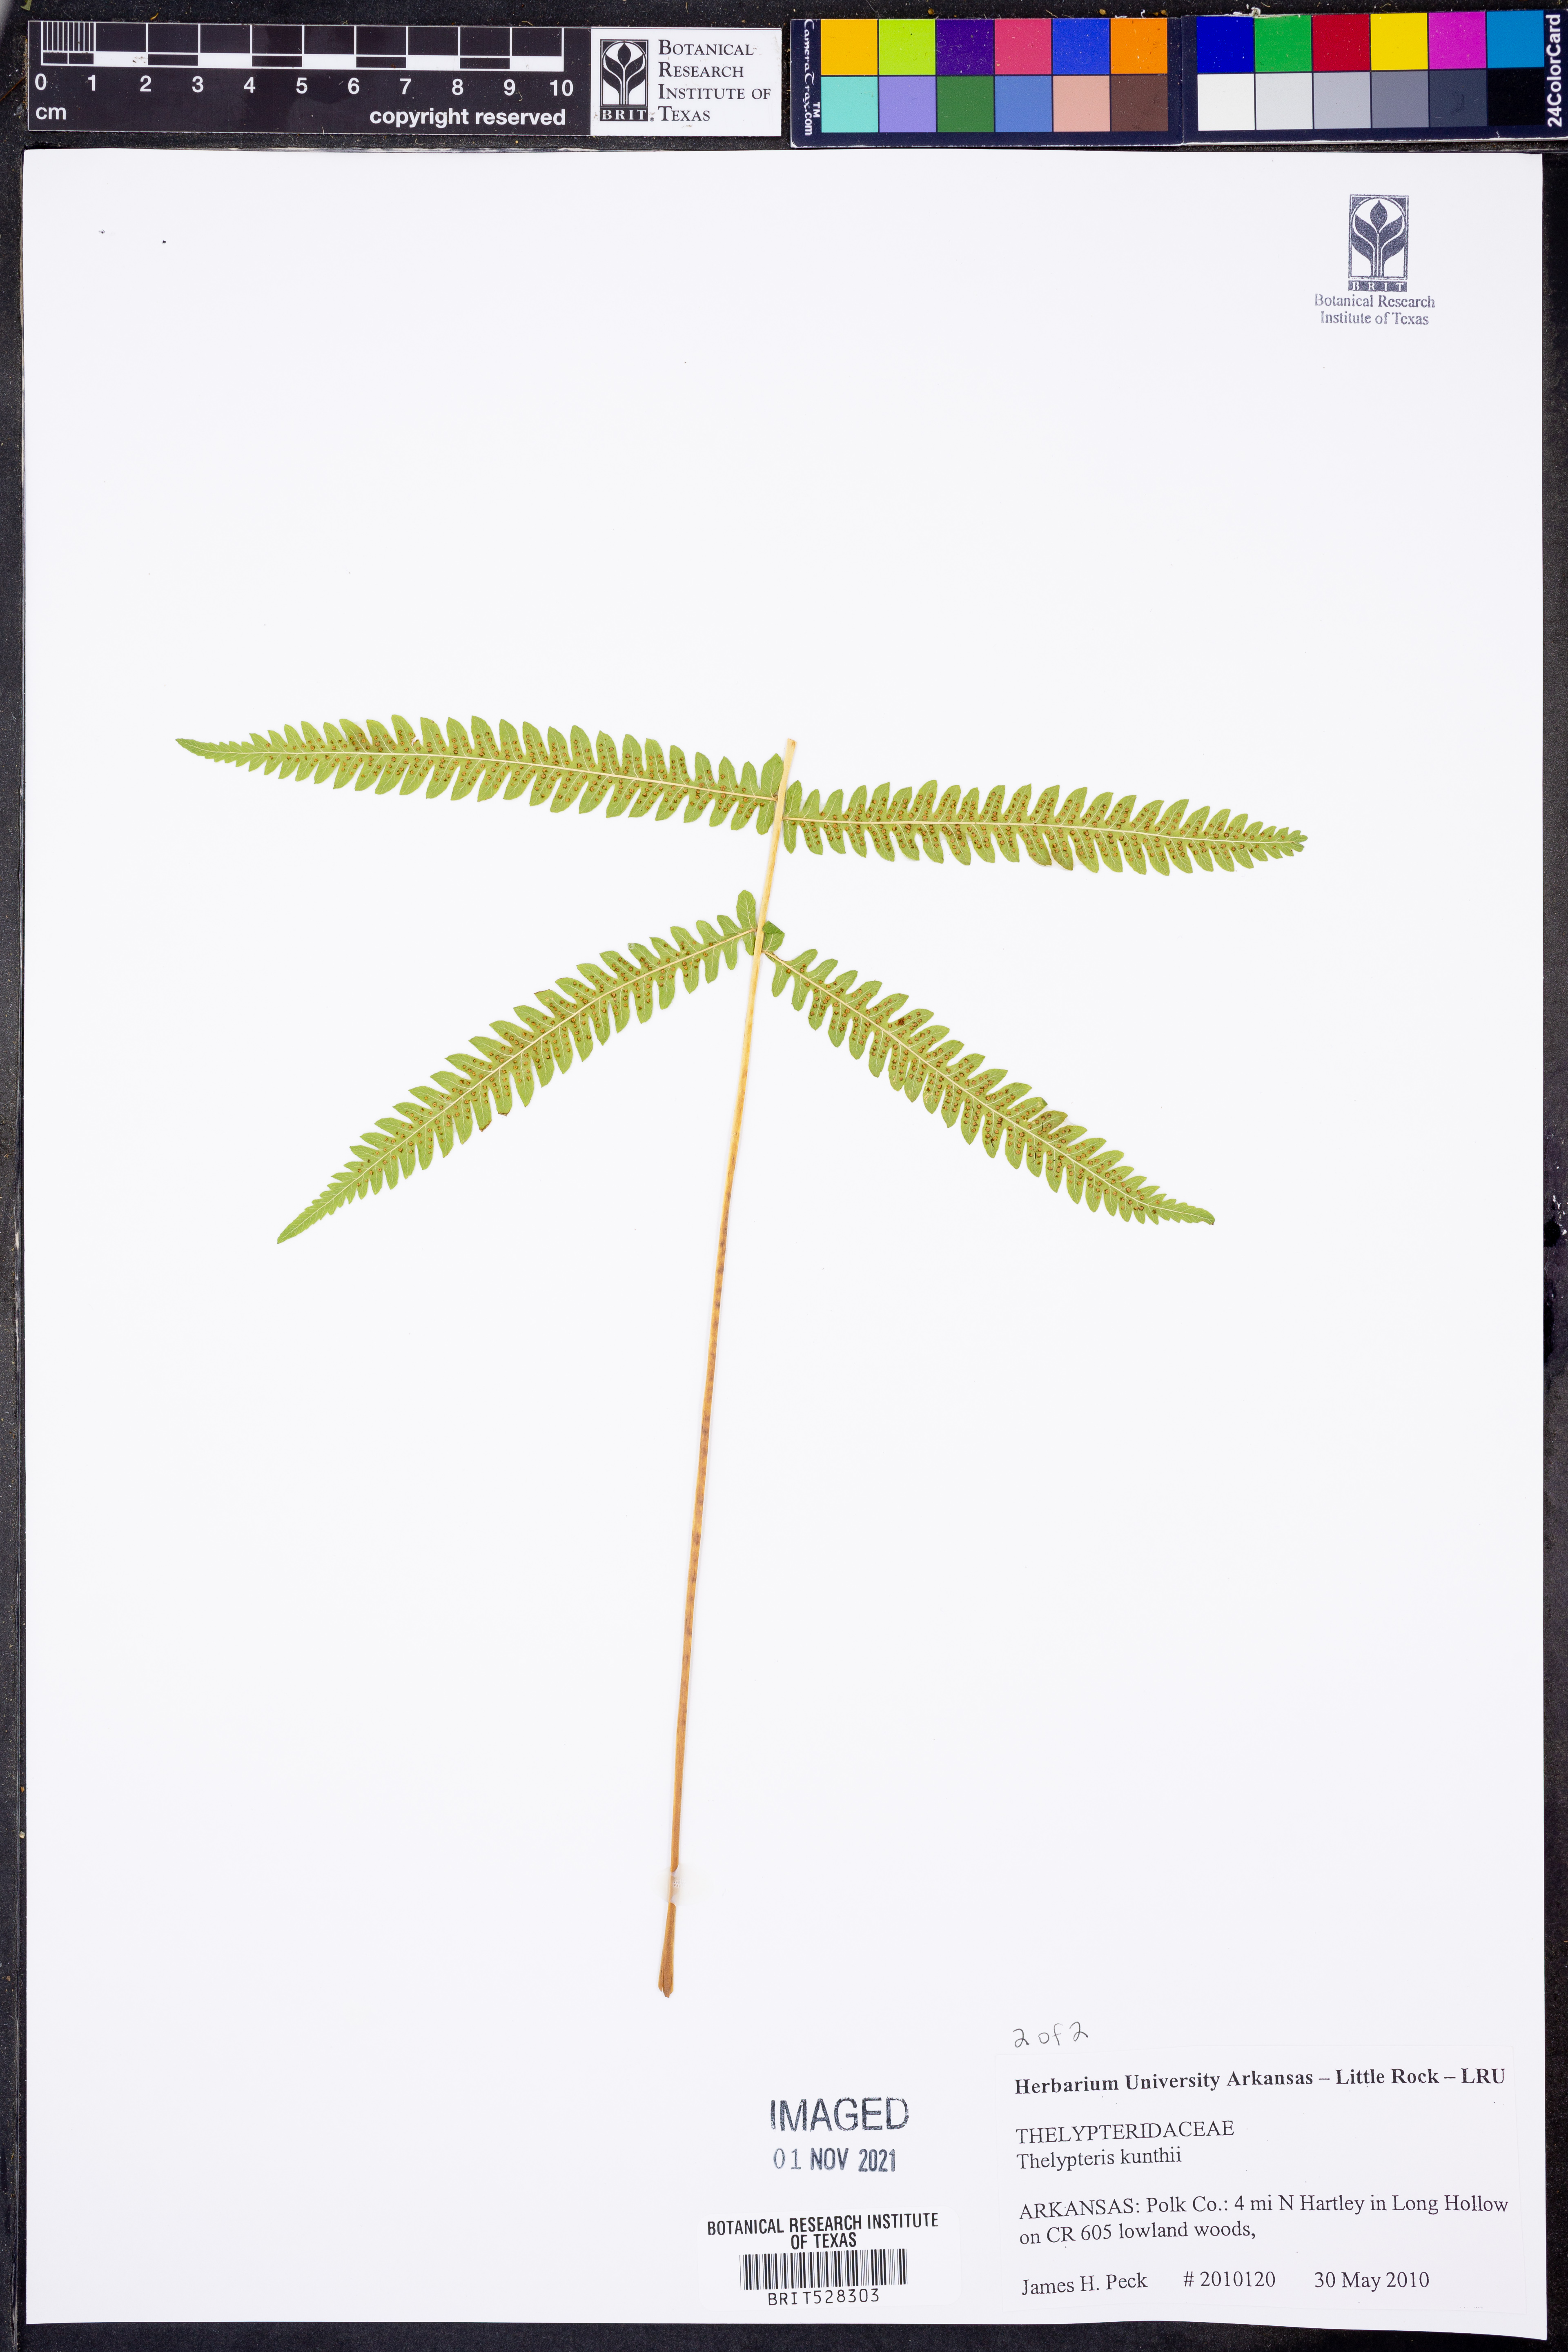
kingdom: Plantae
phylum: Tracheophyta
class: Polypodiopsida
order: Polypodiales
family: Thelypteridaceae
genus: Pelazoneuron
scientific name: Pelazoneuron kunthii
